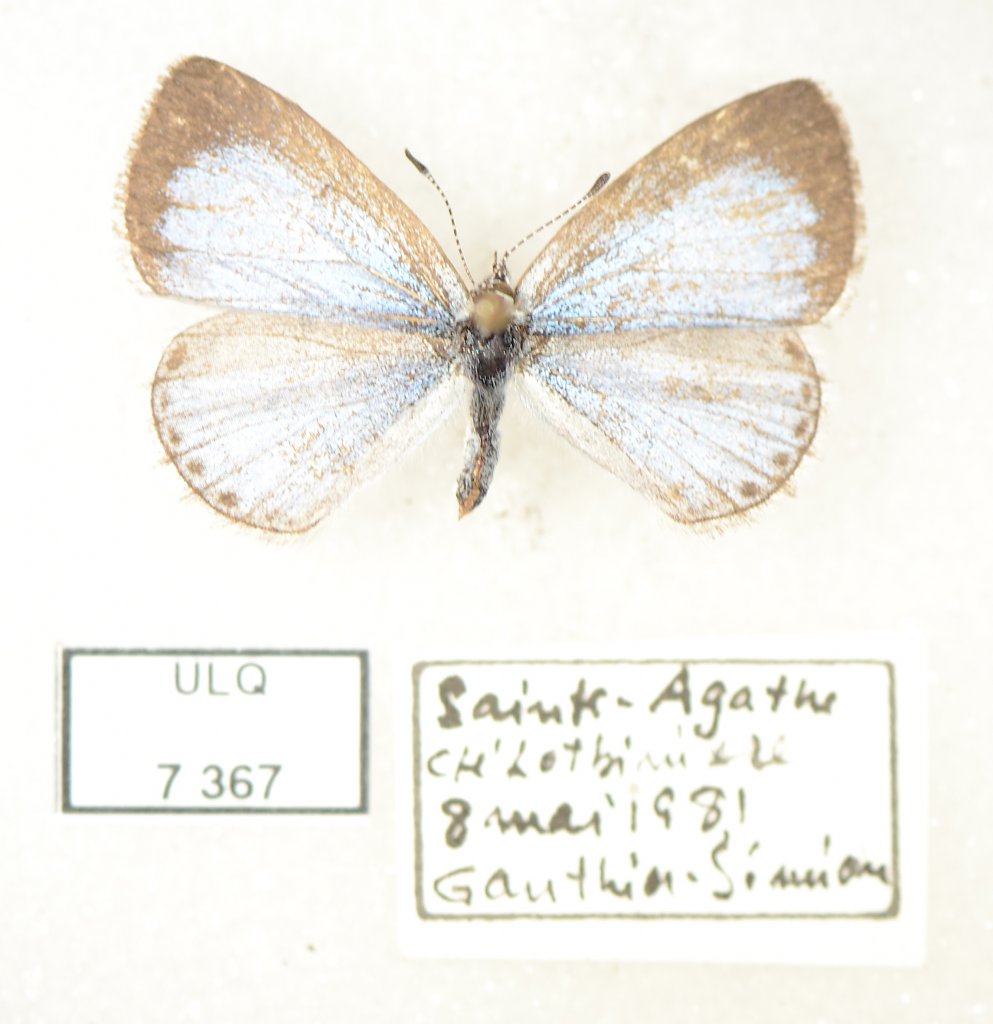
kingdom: Animalia
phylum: Arthropoda
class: Insecta
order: Lepidoptera
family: Lycaenidae
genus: Celastrina
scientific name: Celastrina lucia
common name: Northern Spring Azure
